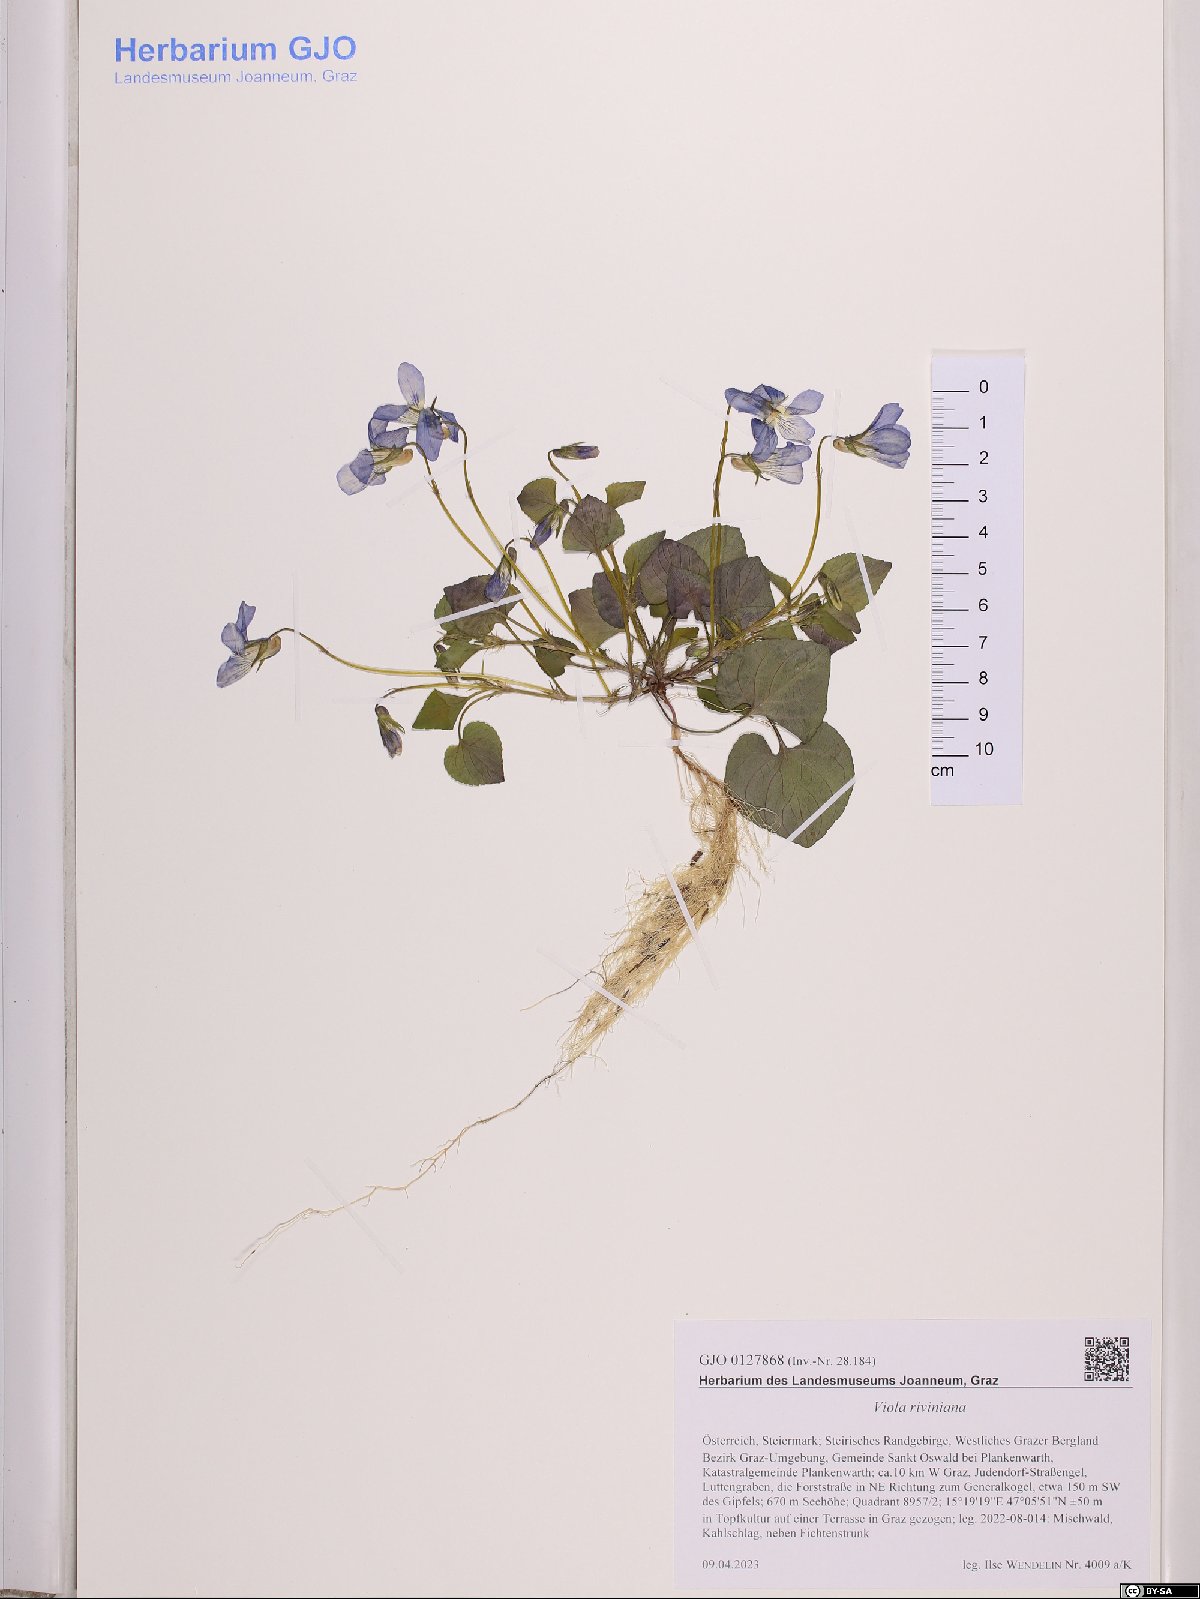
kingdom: Plantae
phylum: Tracheophyta
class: Magnoliopsida
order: Malpighiales
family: Violaceae
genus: Viola
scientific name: Viola riviniana
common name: Common dog-violet
